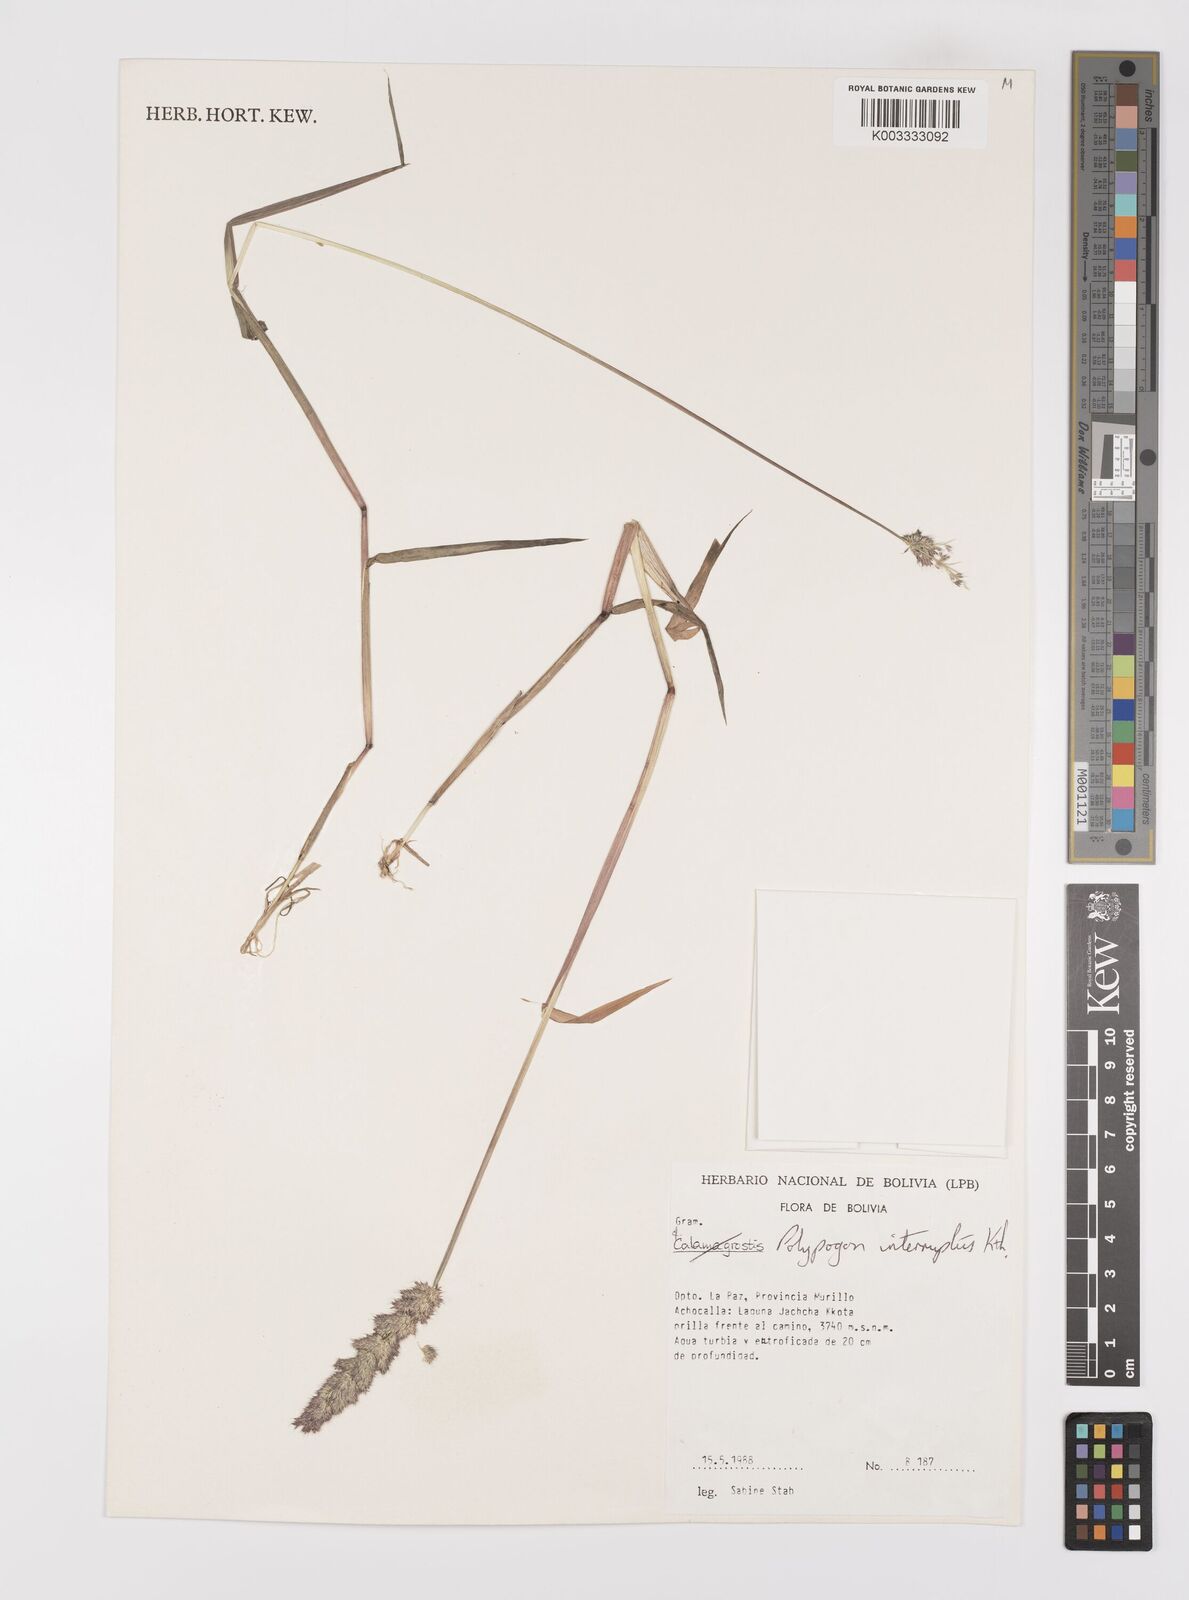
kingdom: Plantae
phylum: Tracheophyta
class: Liliopsida
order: Poales
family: Poaceae
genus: Polypogon
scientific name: Polypogon interruptus
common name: Ditch polypogon
